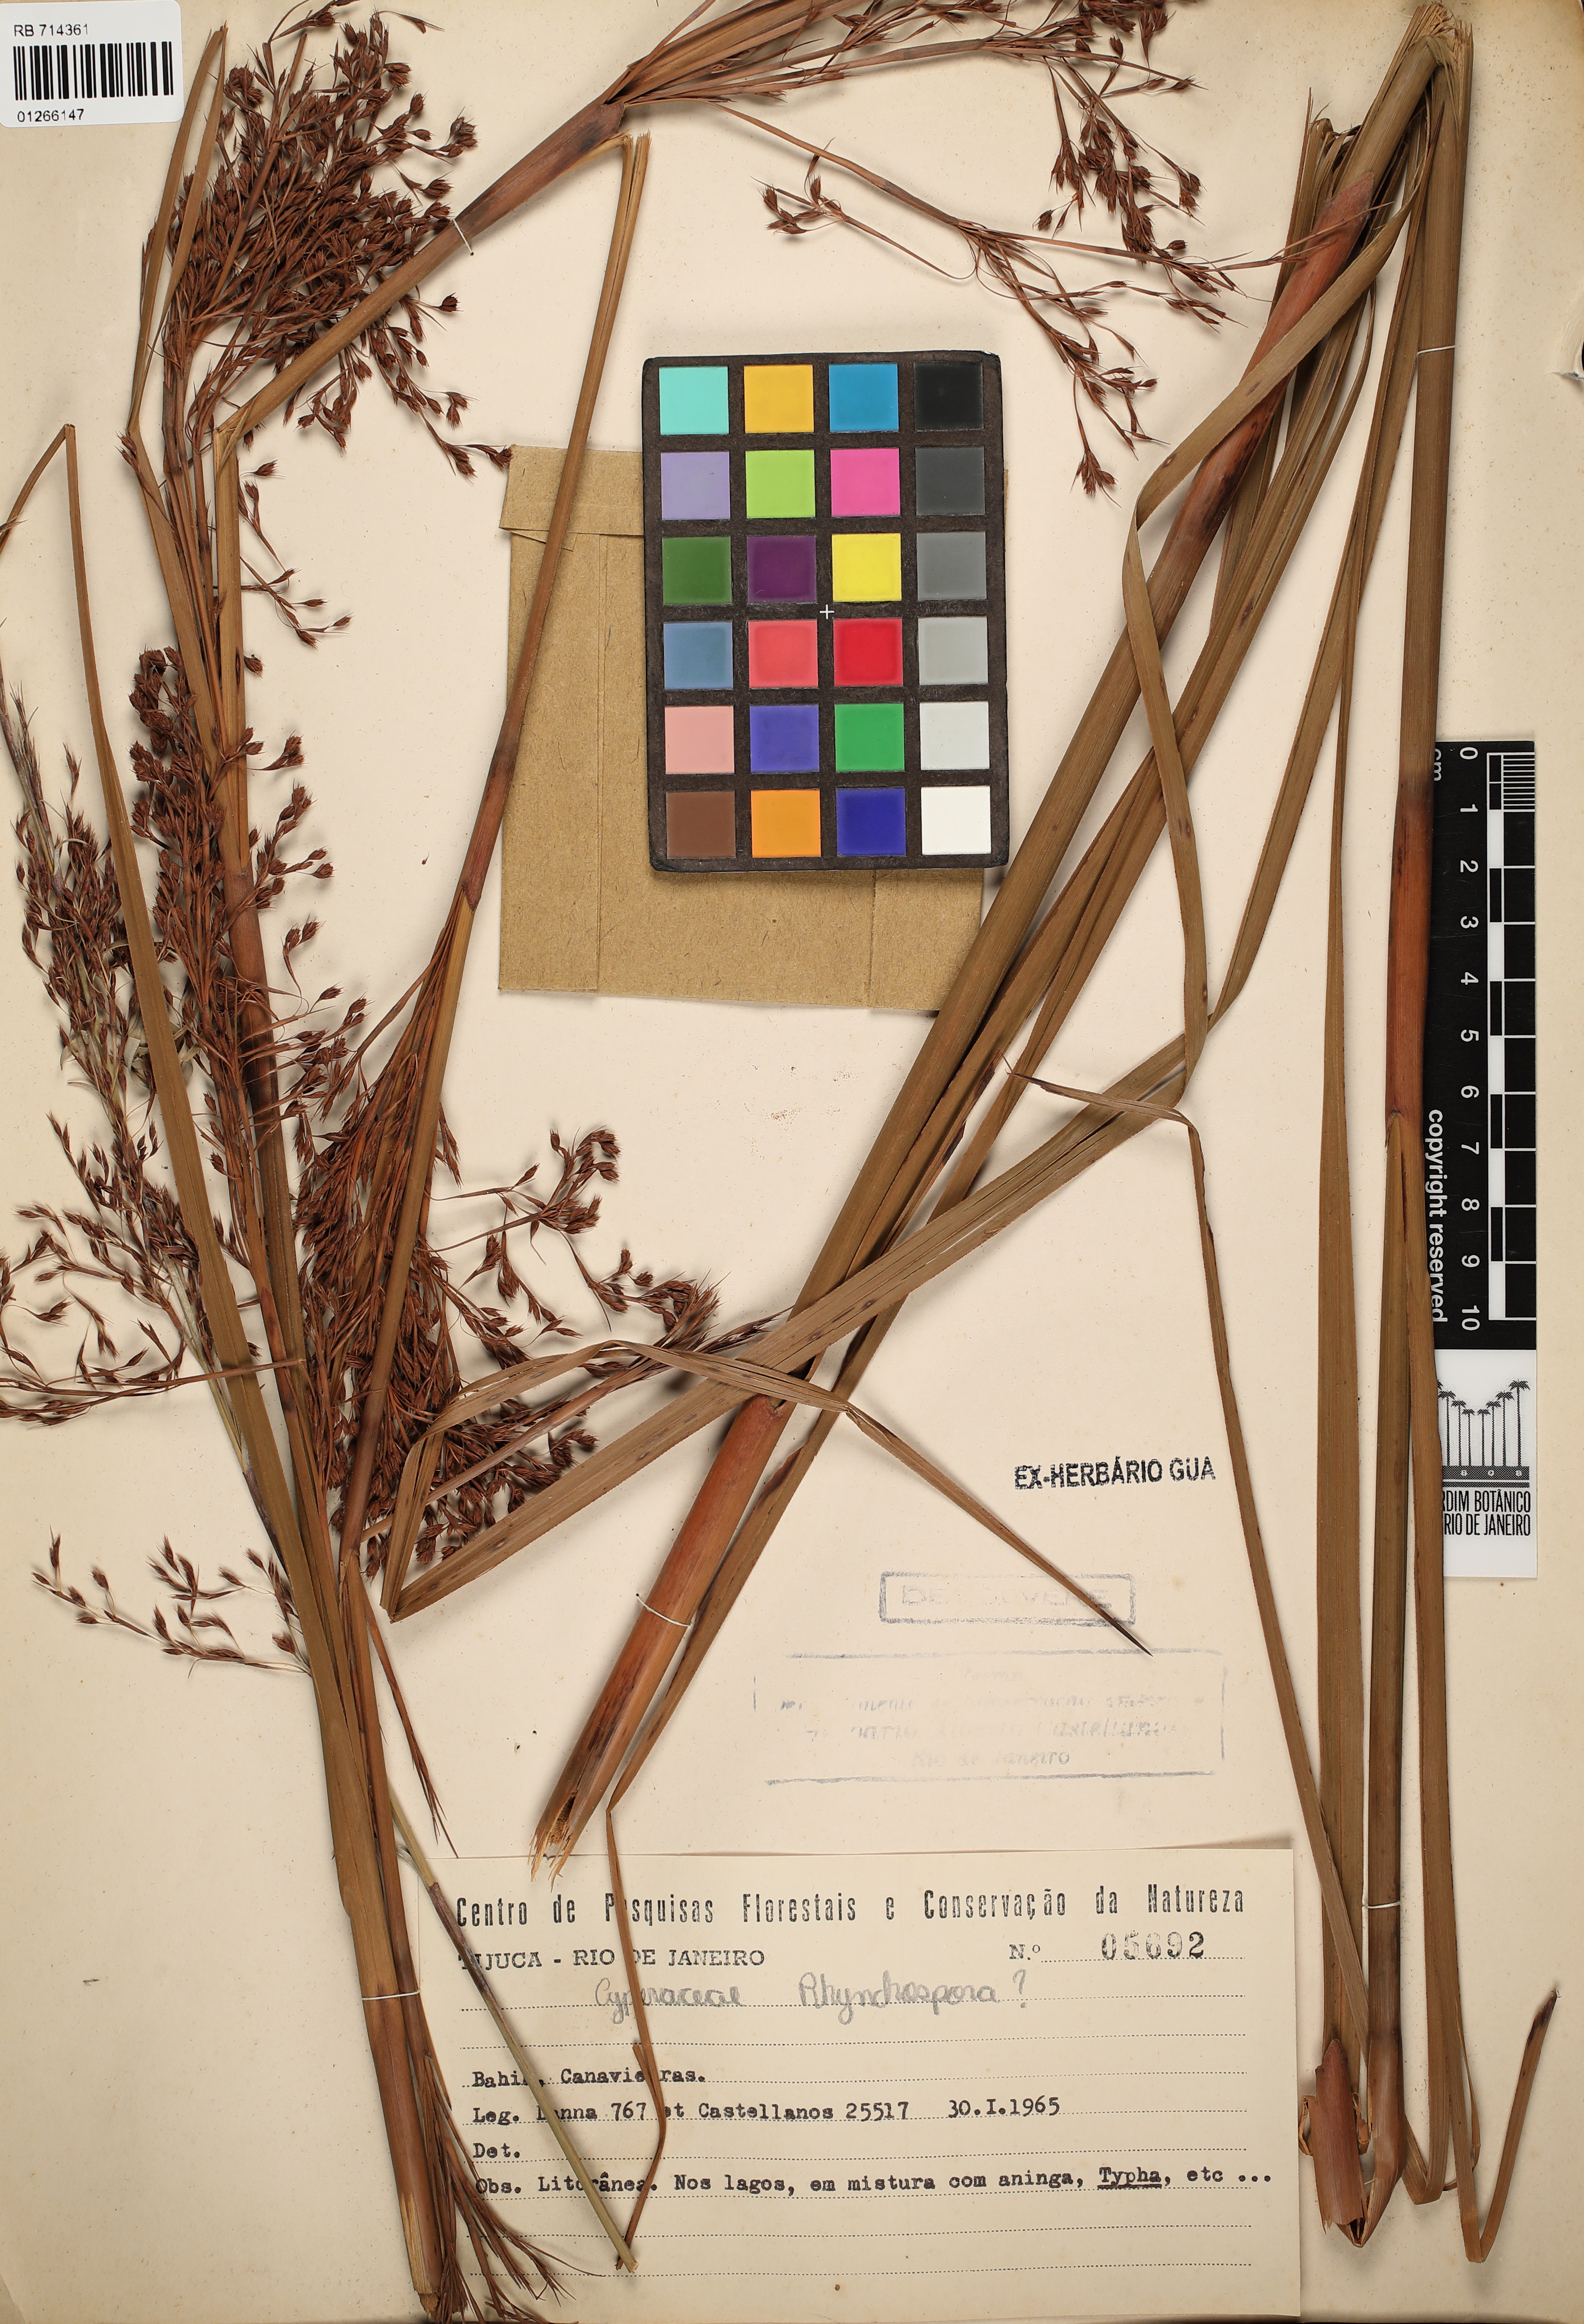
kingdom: Plantae
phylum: Tracheophyta
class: Liliopsida
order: Poales
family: Cyperaceae
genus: Rhynchospora
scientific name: Rhynchospora
